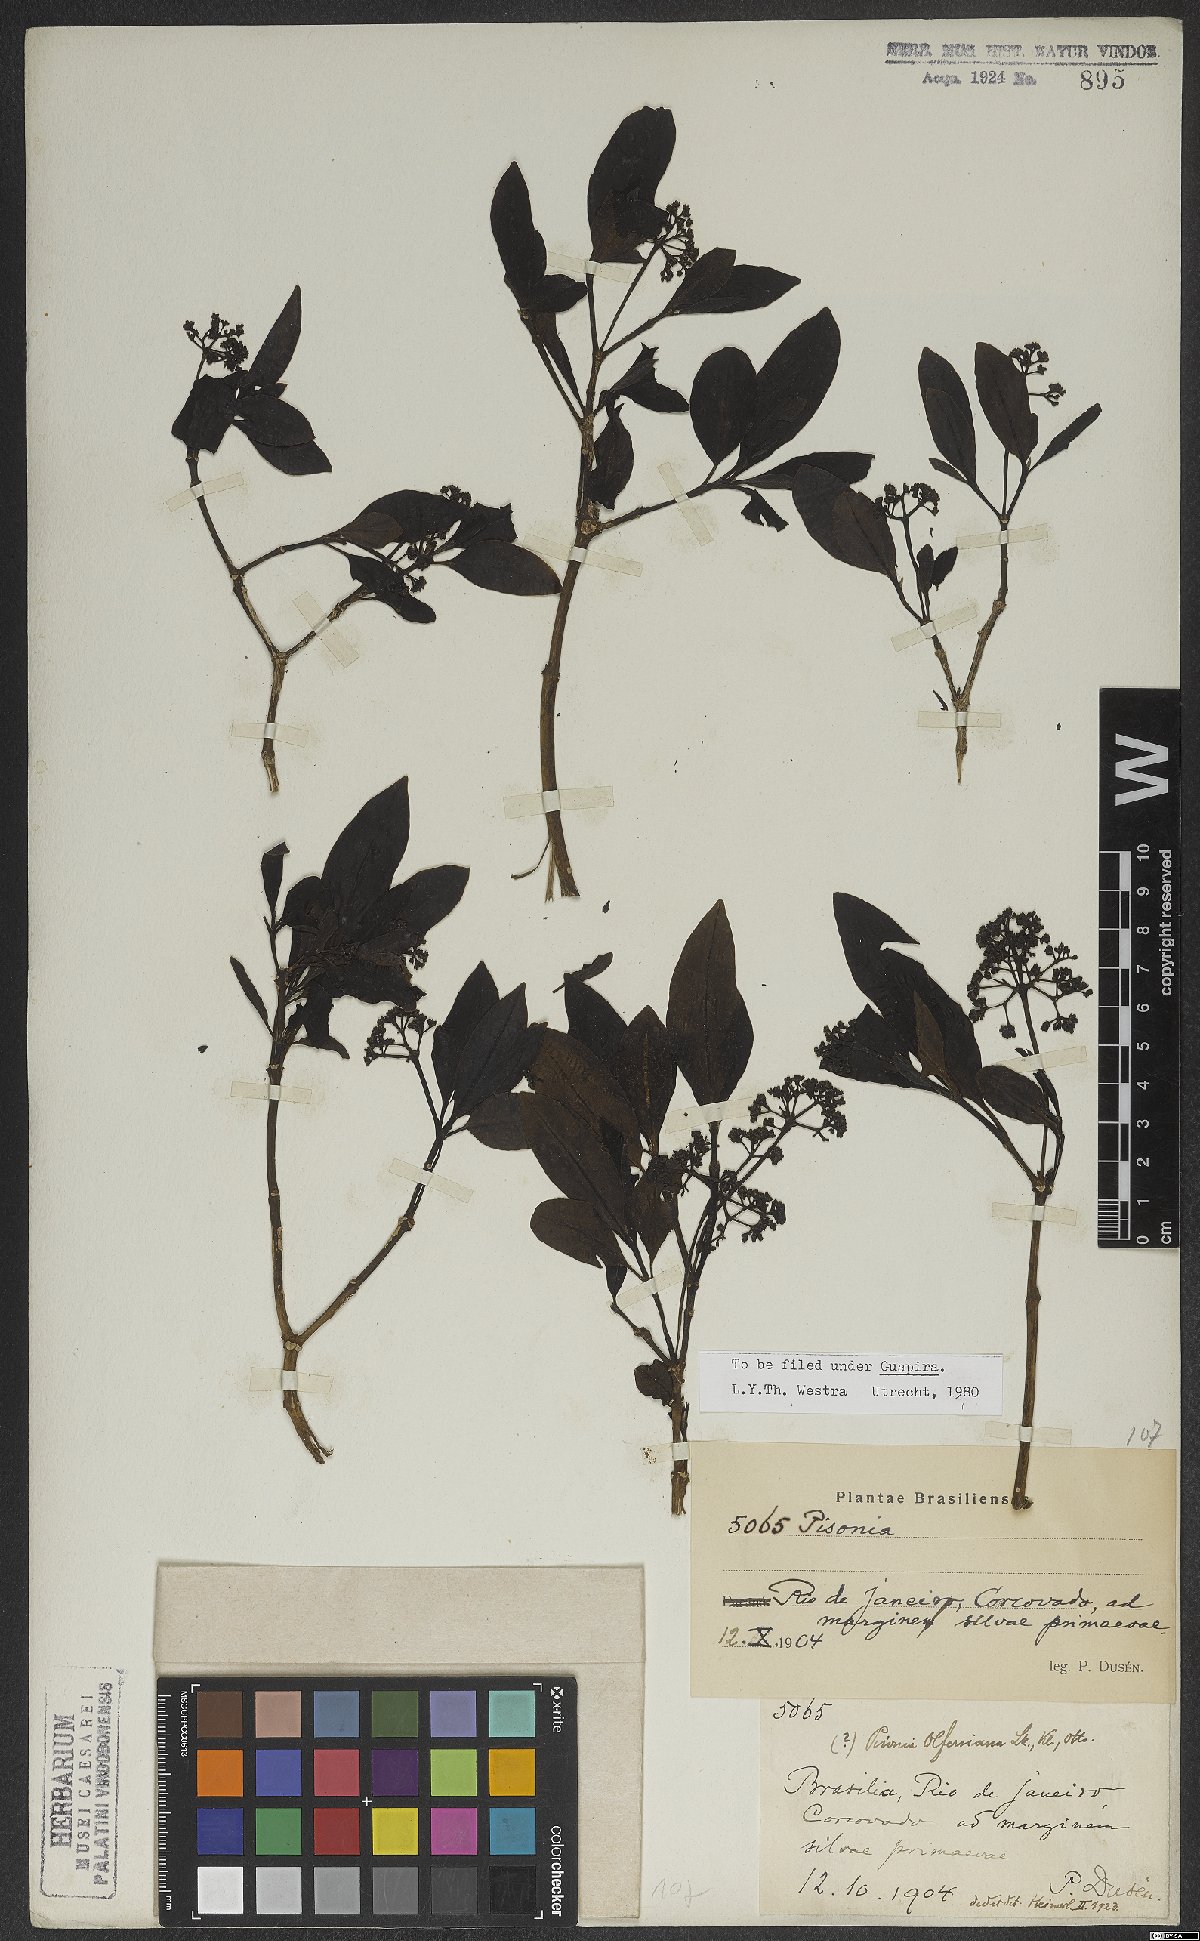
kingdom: Plantae
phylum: Tracheophyta
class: Magnoliopsida
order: Caryophyllales
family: Nyctaginaceae
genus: Guapira
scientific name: Guapira opposita
